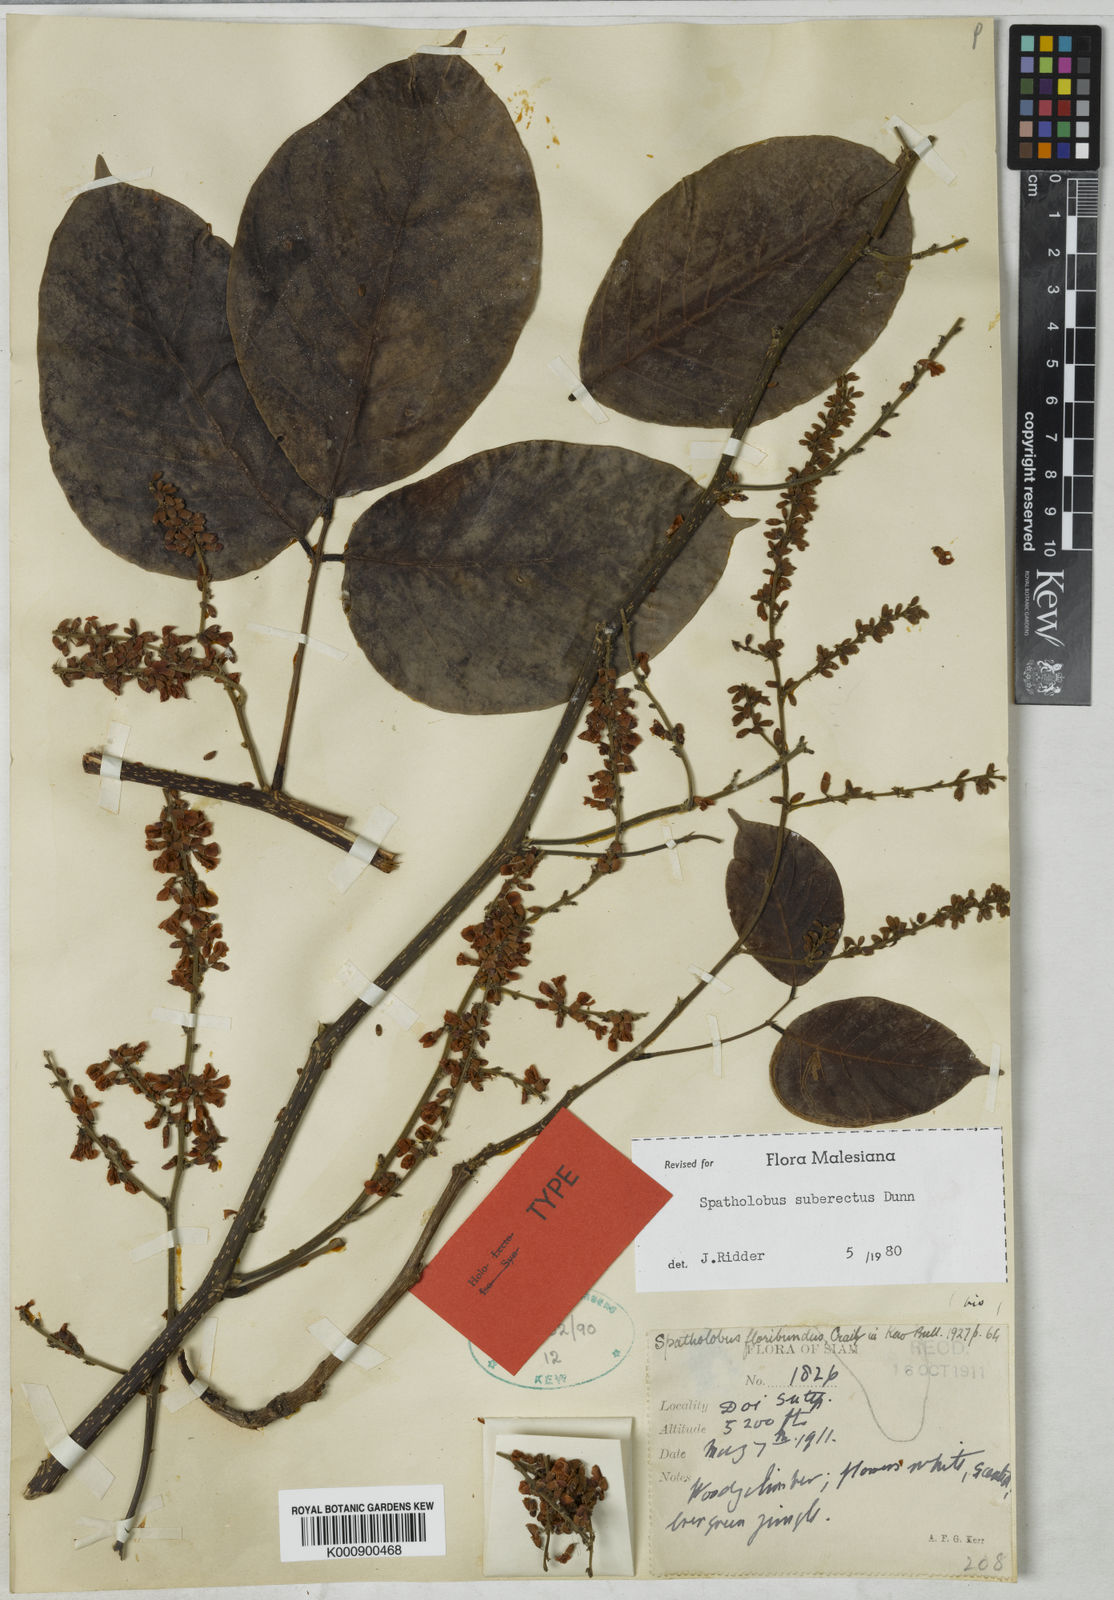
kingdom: Plantae
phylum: Tracheophyta
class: Magnoliopsida
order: Fabales
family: Fabaceae
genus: Spatholobus
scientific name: Spatholobus suberectus
